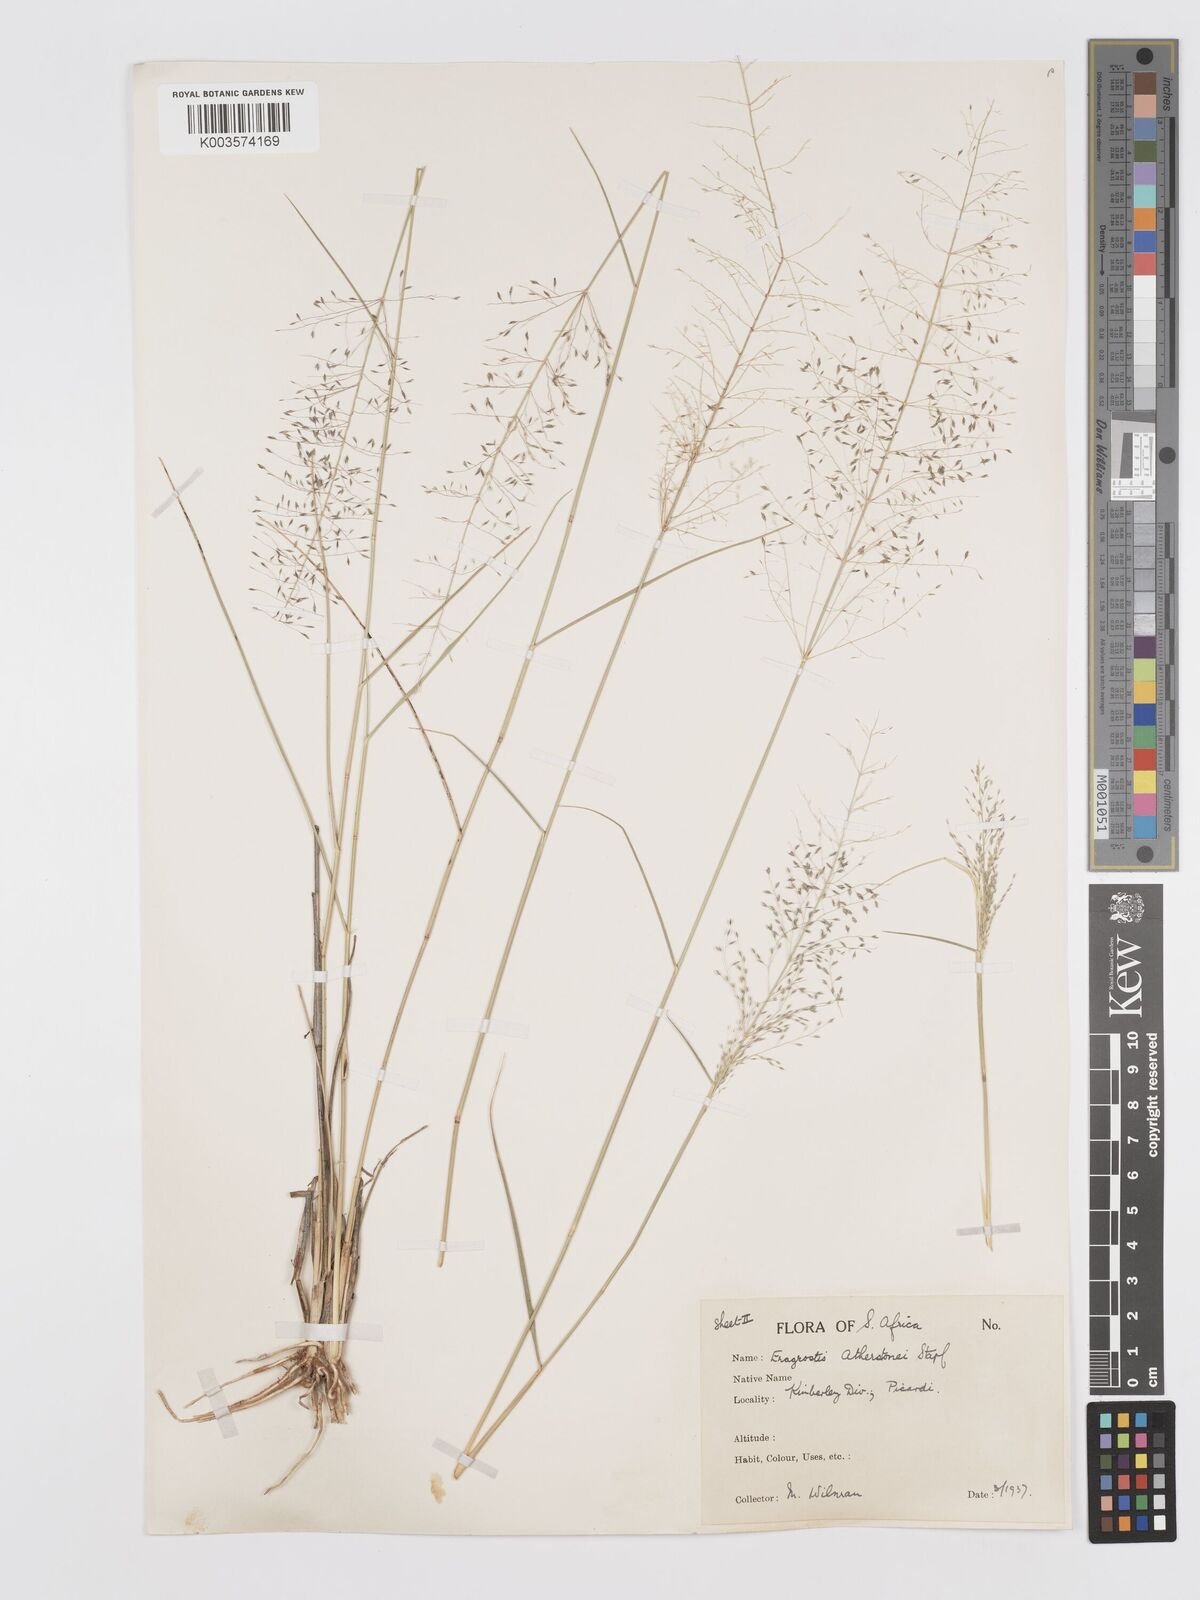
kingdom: Plantae
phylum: Tracheophyta
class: Liliopsida
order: Poales
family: Poaceae
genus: Eragrostis
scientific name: Eragrostis cylindriflora
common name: Cylinderflower lovegrass
